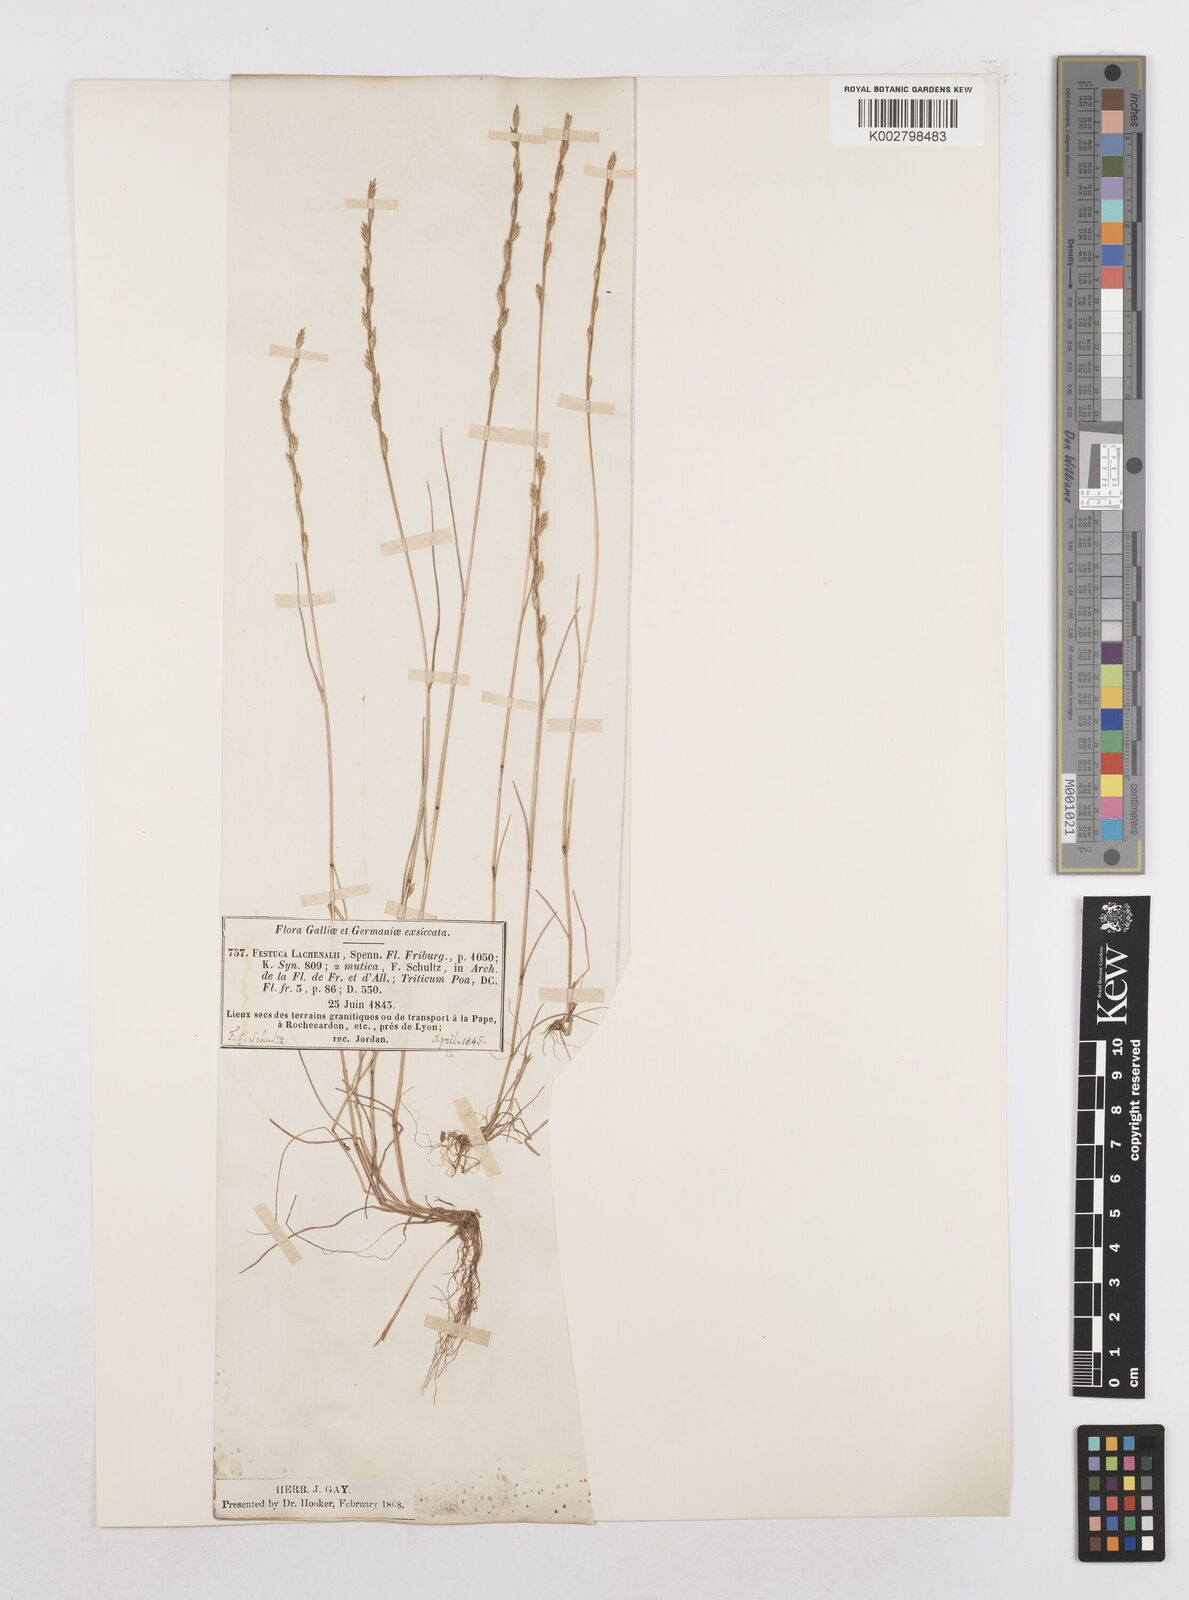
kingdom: Plantae
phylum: Tracheophyta
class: Liliopsida
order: Poales
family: Poaceae
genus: Festuca
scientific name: Festuca lachenalii
